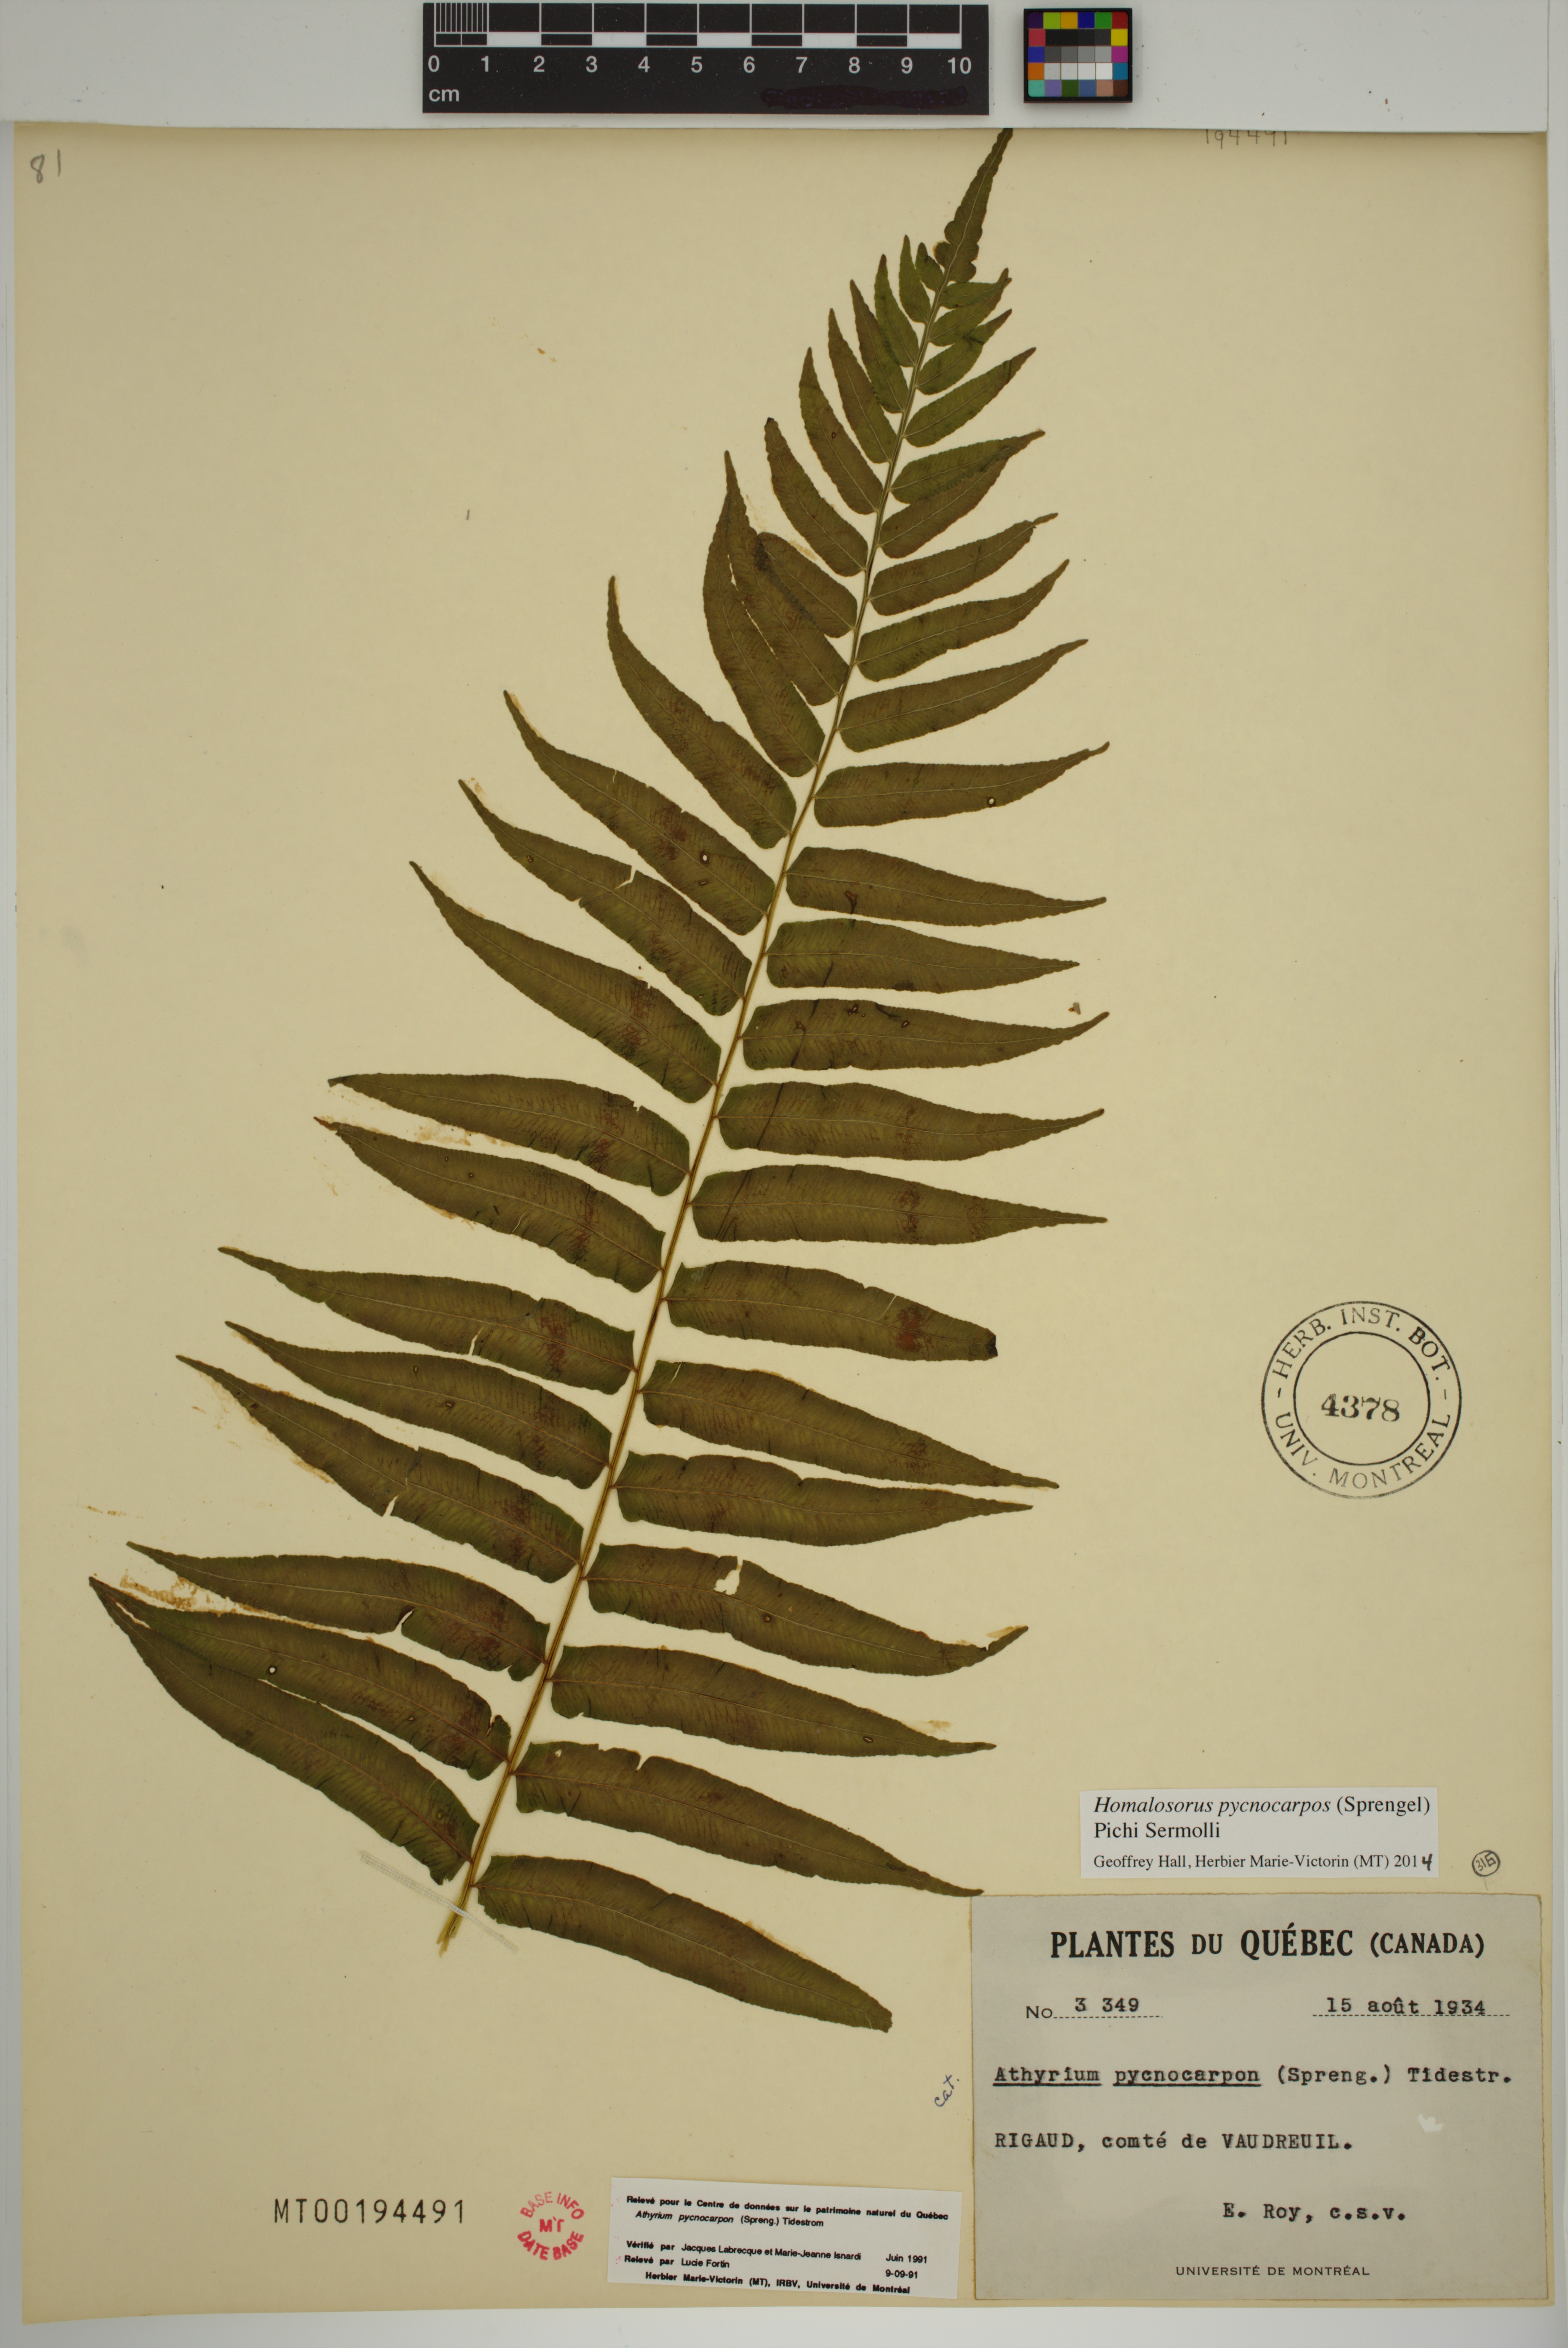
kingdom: Plantae
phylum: Tracheophyta
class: Polypodiopsida
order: Polypodiales
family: Diplaziopsidaceae
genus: Homalosorus
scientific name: Homalosorus pycnocarpos
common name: Glade fern
